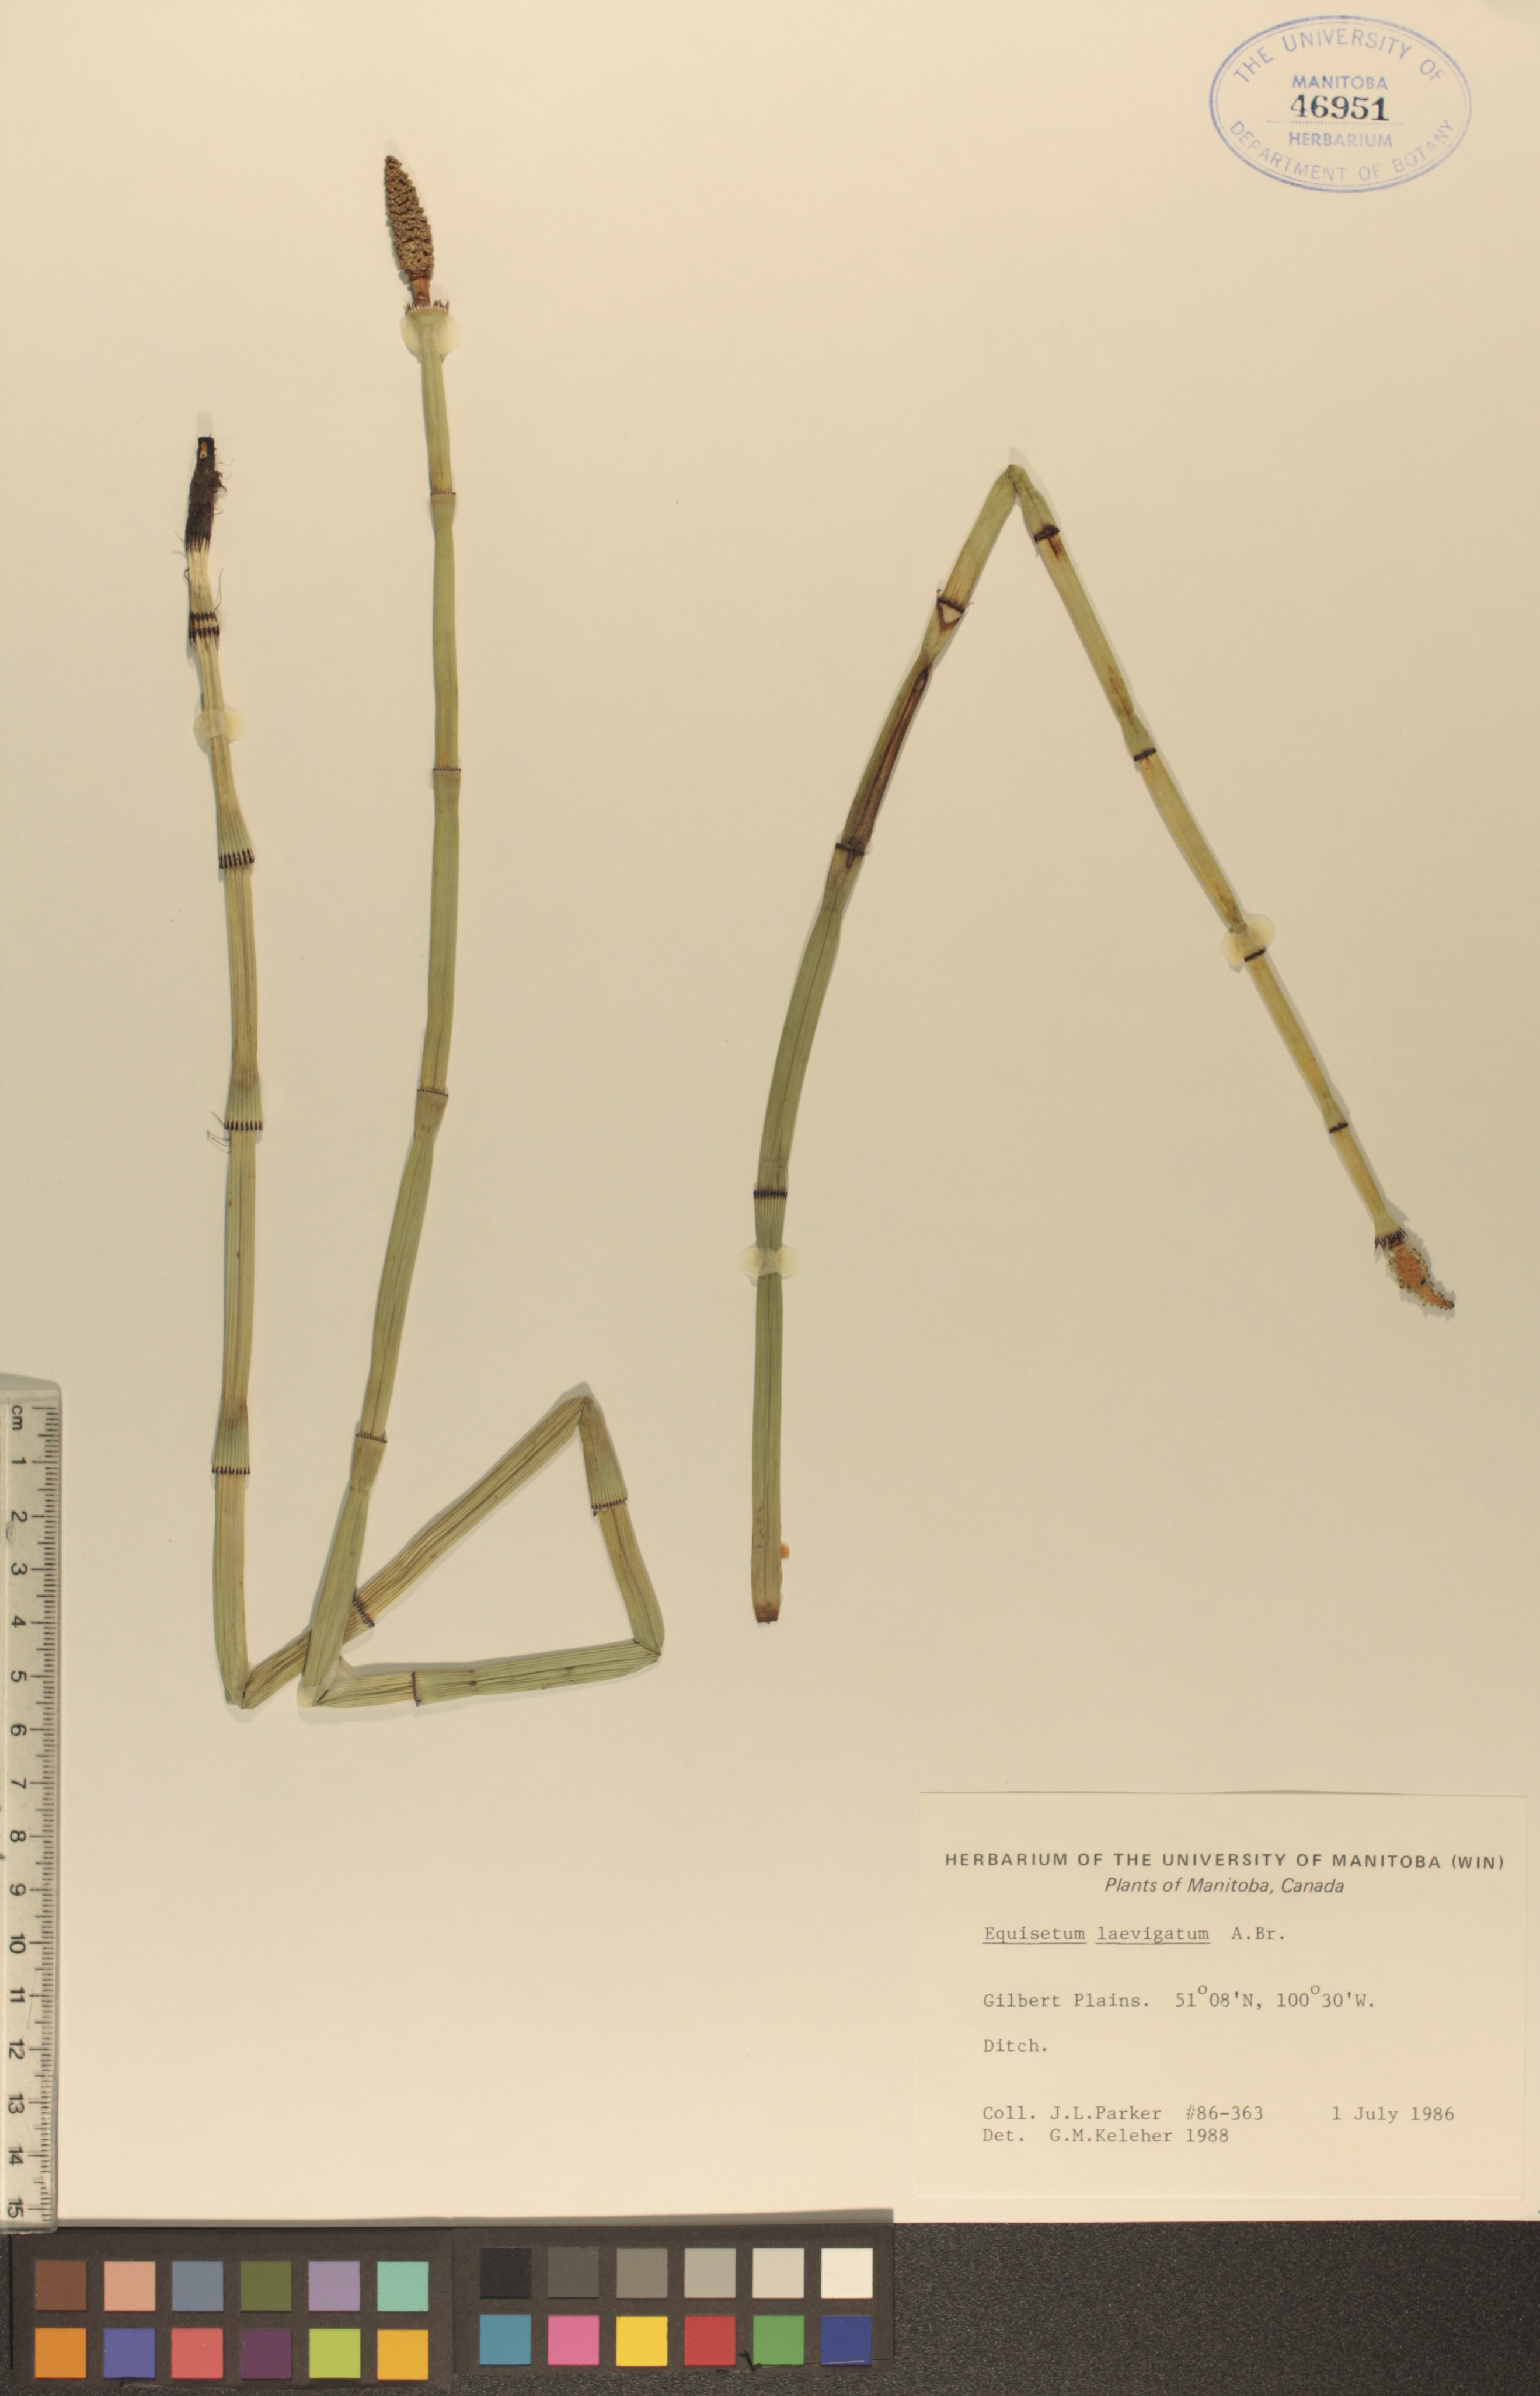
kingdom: Plantae
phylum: Tracheophyta
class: Polypodiopsida
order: Equisetales
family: Equisetaceae
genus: Equisetum
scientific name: Equisetum laevigatum
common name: Smooth scouring-rush
